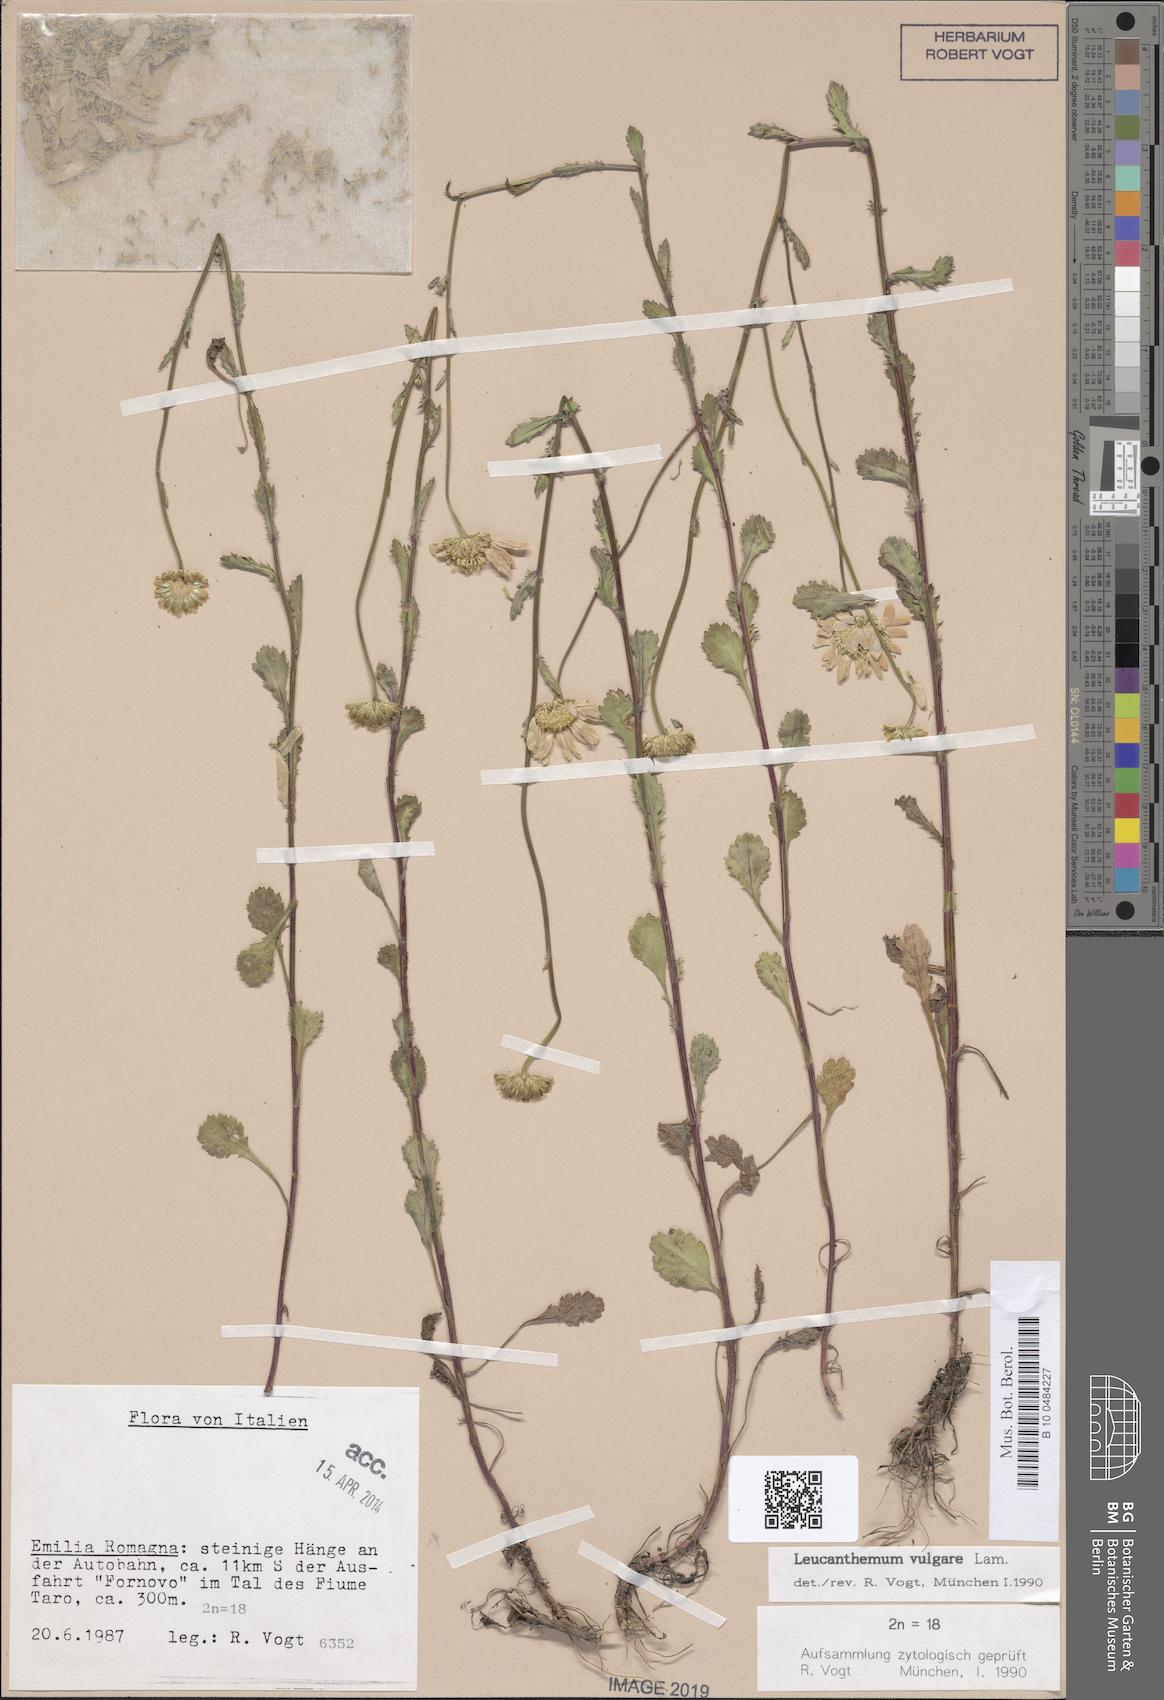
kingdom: Plantae
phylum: Tracheophyta
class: Magnoliopsida
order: Asterales
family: Asteraceae
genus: Leucanthemum
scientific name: Leucanthemum vulgare
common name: Oxeye daisy
